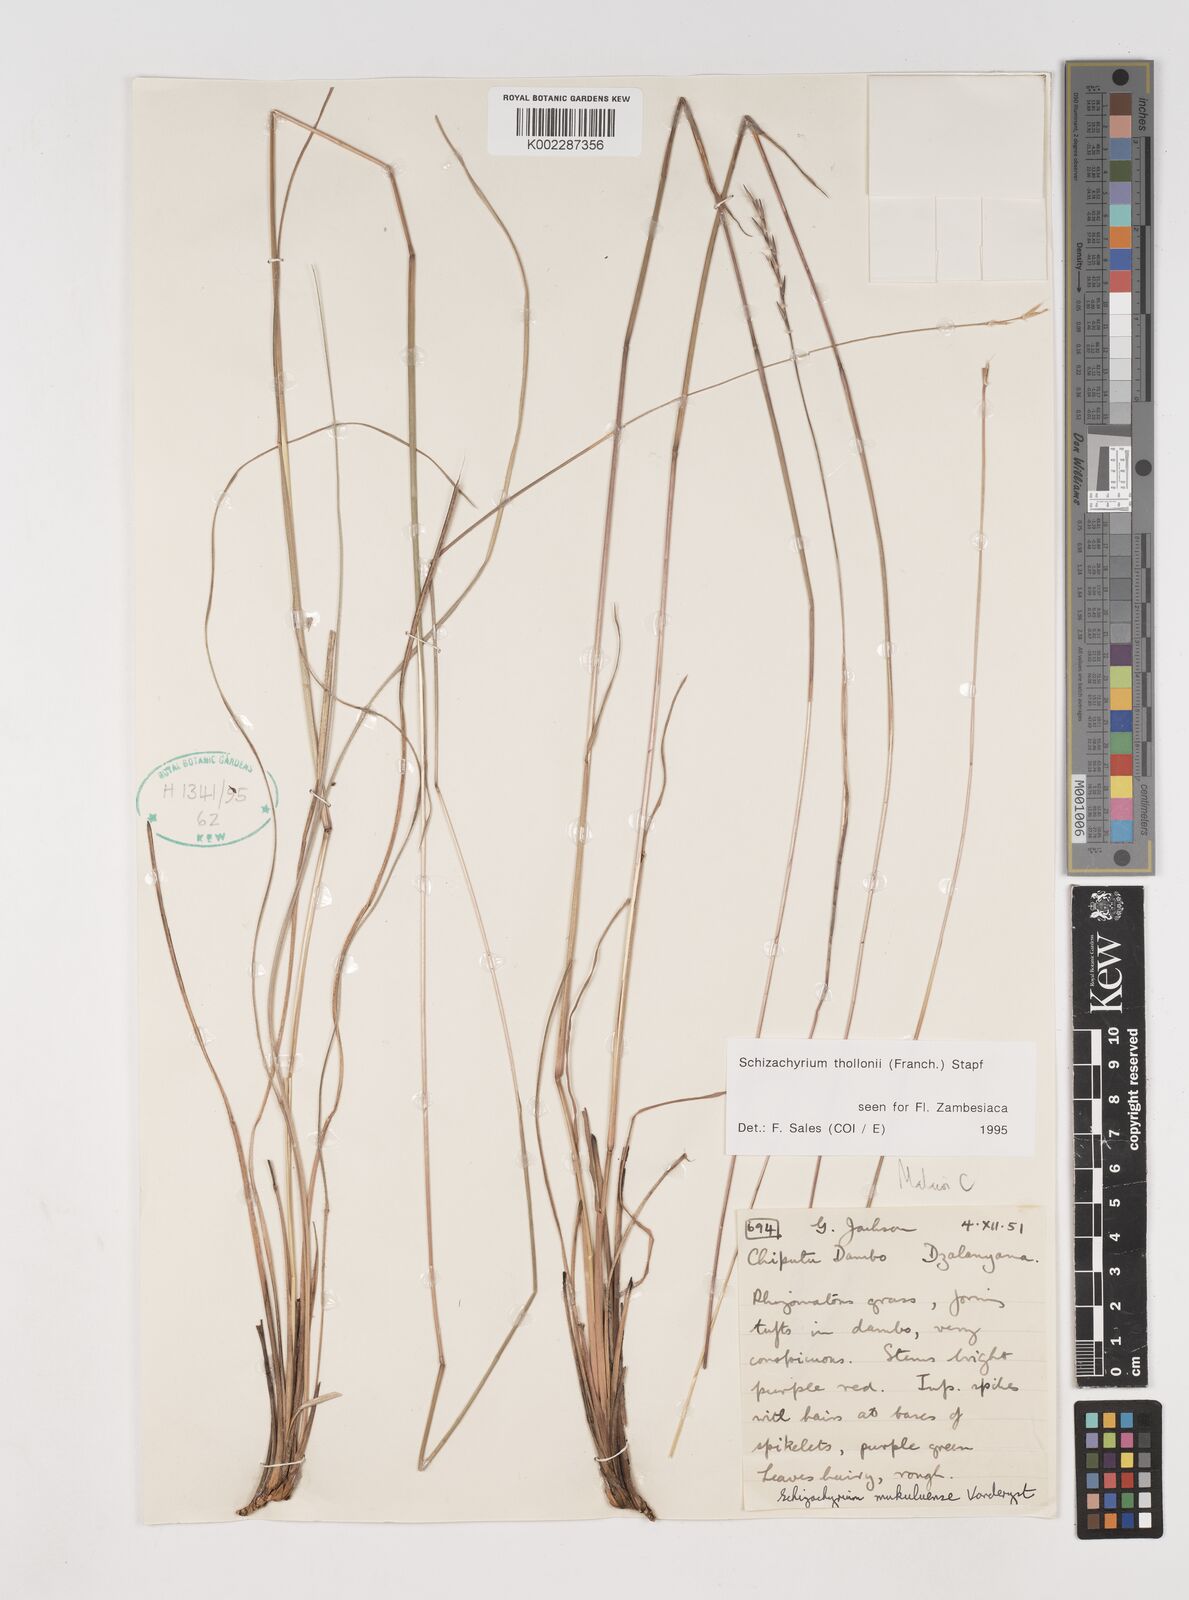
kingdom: Plantae
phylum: Tracheophyta
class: Liliopsida
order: Poales
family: Poaceae
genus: Schizachyrium
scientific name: Schizachyrium thollonii
